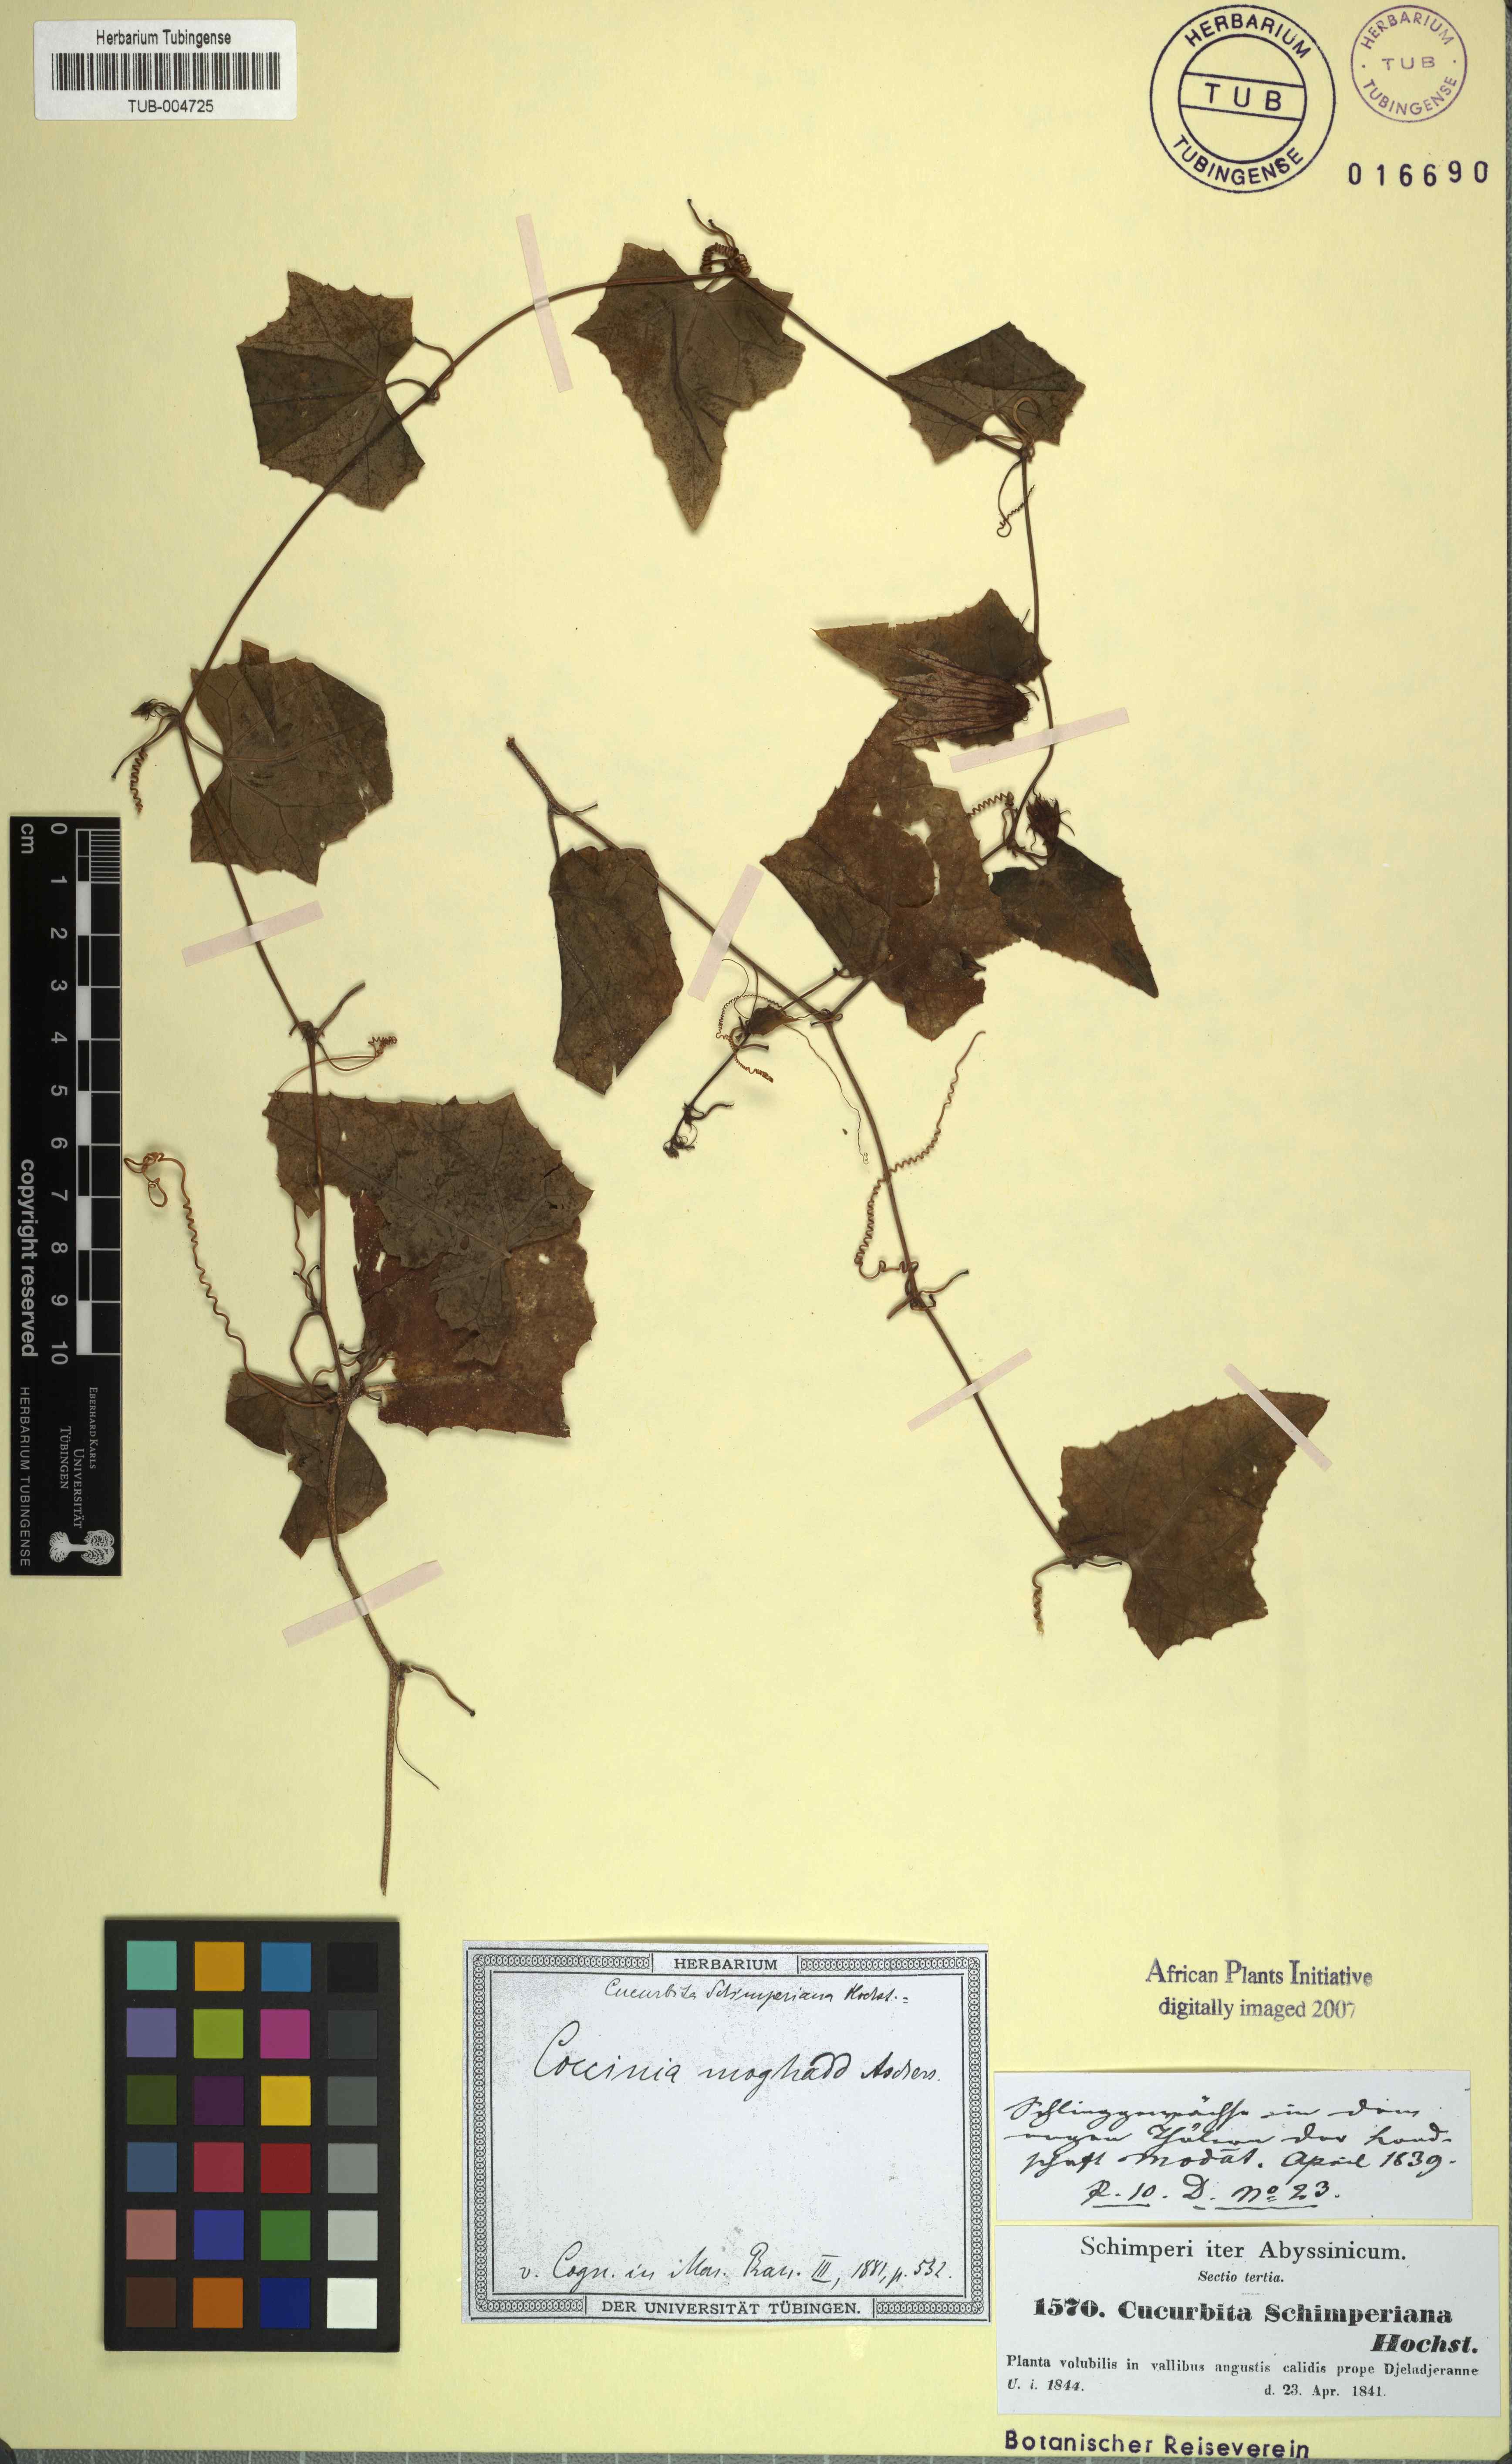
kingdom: Plantae
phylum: Tracheophyta
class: Magnoliopsida
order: Cucurbitales
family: Cucurbitaceae
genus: Coccinia
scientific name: Coccinia grandis
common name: Ivy gourd
